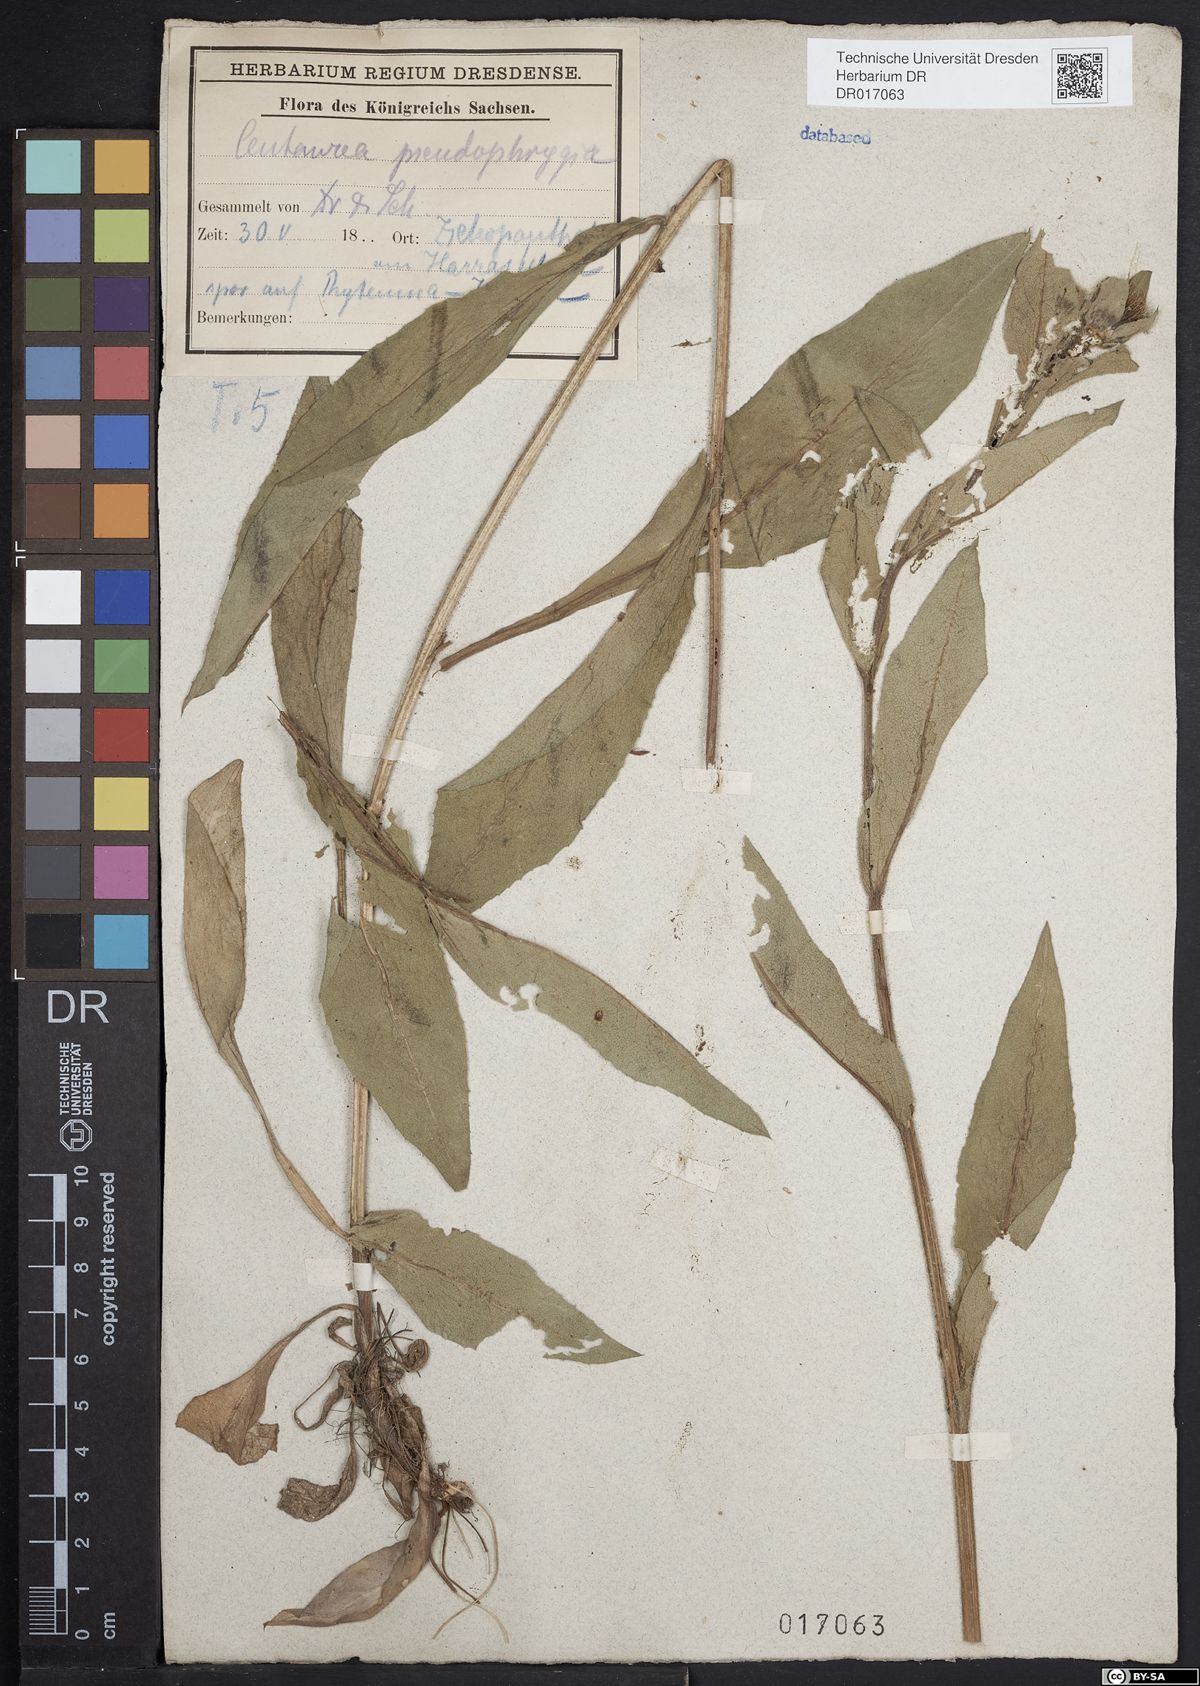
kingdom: Plantae
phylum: Tracheophyta
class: Magnoliopsida
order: Asterales
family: Asteraceae
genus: Centaurea
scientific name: Centaurea pseudophrygia
